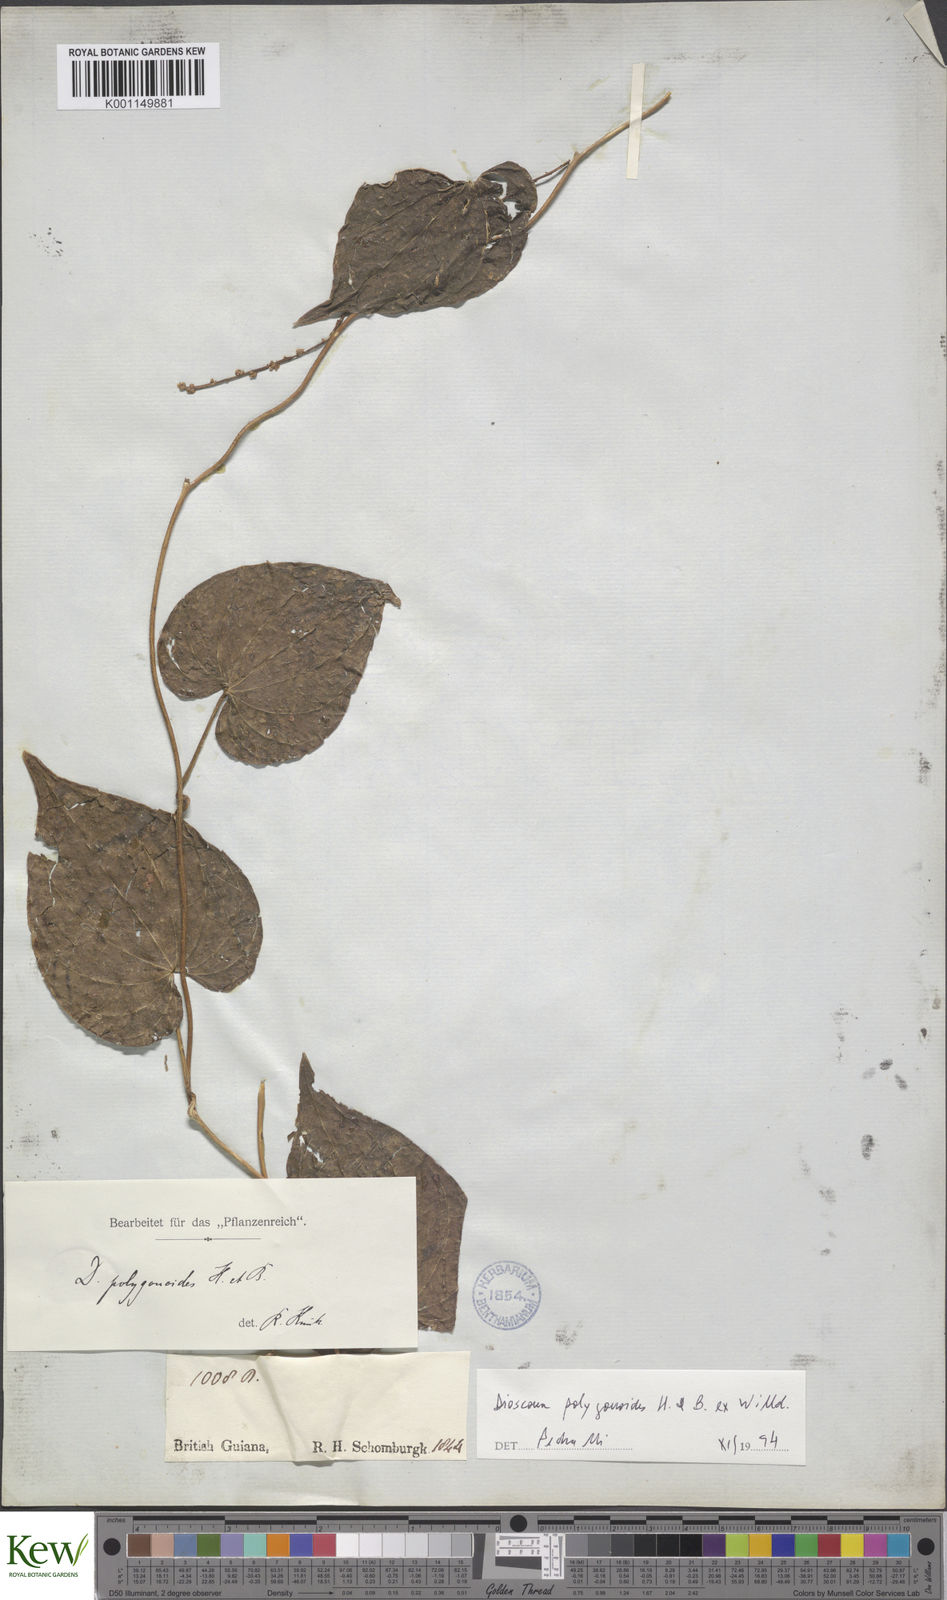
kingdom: Plantae
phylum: Tracheophyta
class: Liliopsida
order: Dioscoreales
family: Dioscoreaceae
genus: Dioscorea
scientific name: Dioscorea polygonoides
